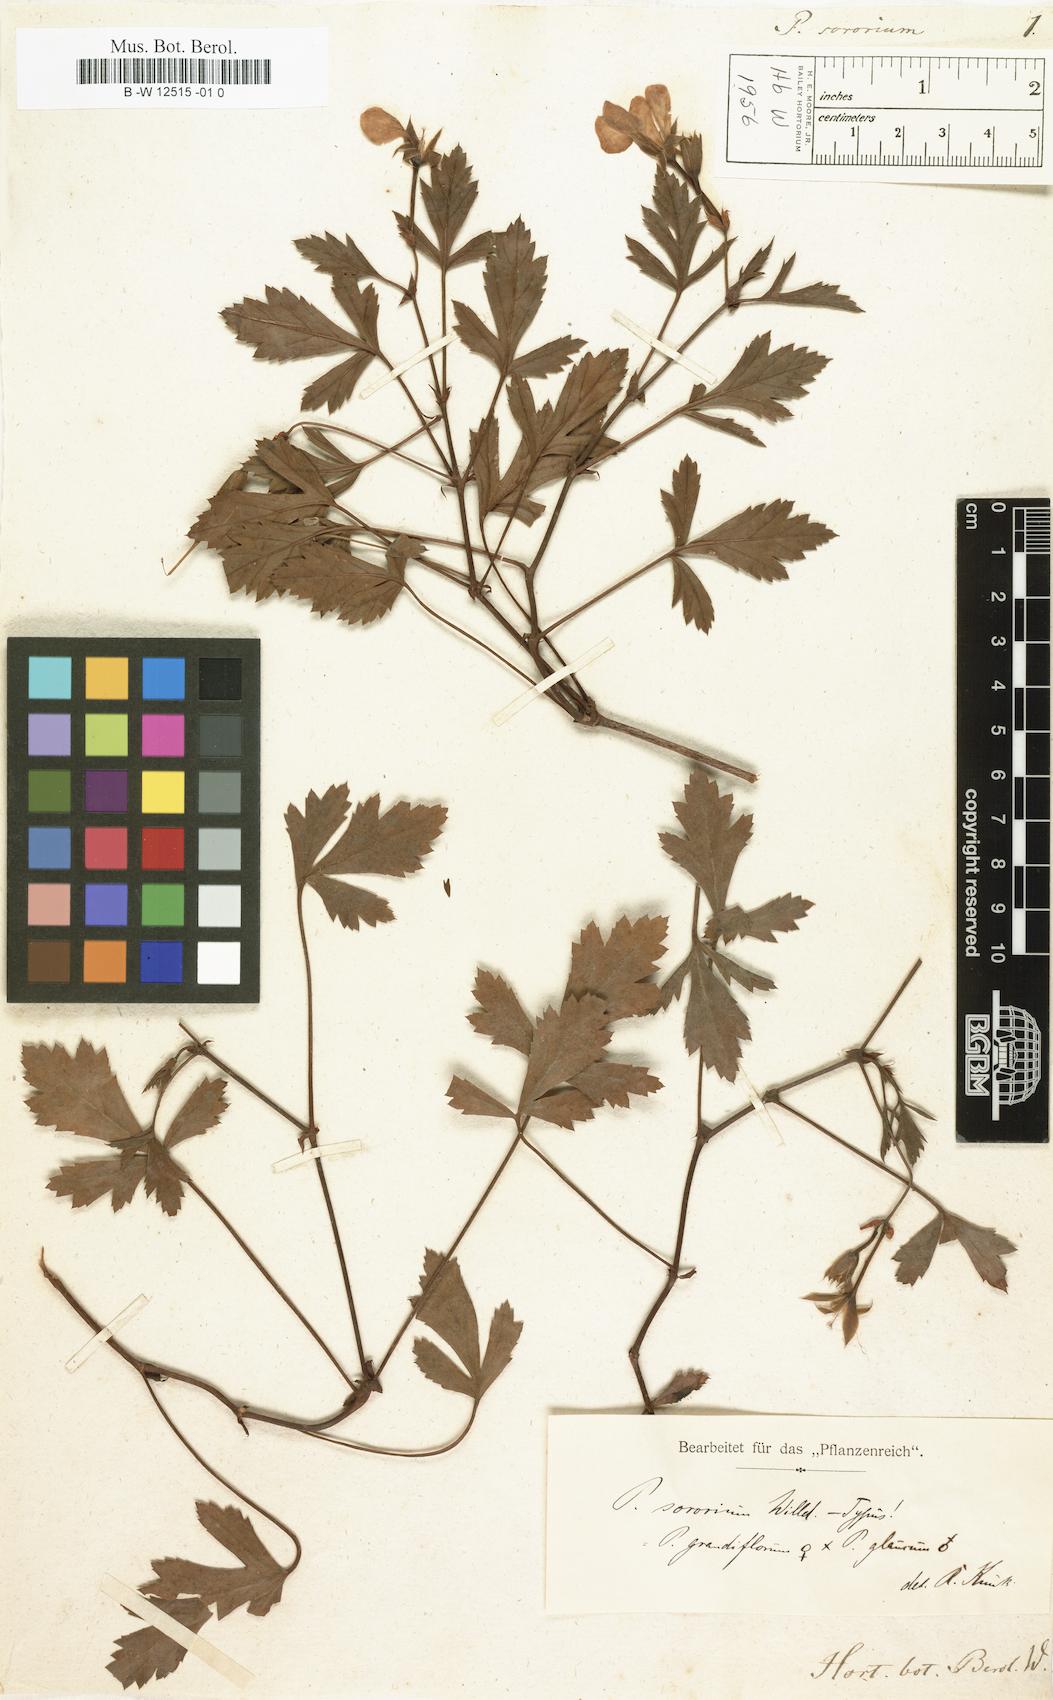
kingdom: Plantae
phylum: Tracheophyta
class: Magnoliopsida
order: Geraniales
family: Geraniaceae
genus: Pelargonium
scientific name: Pelargonium sororium
